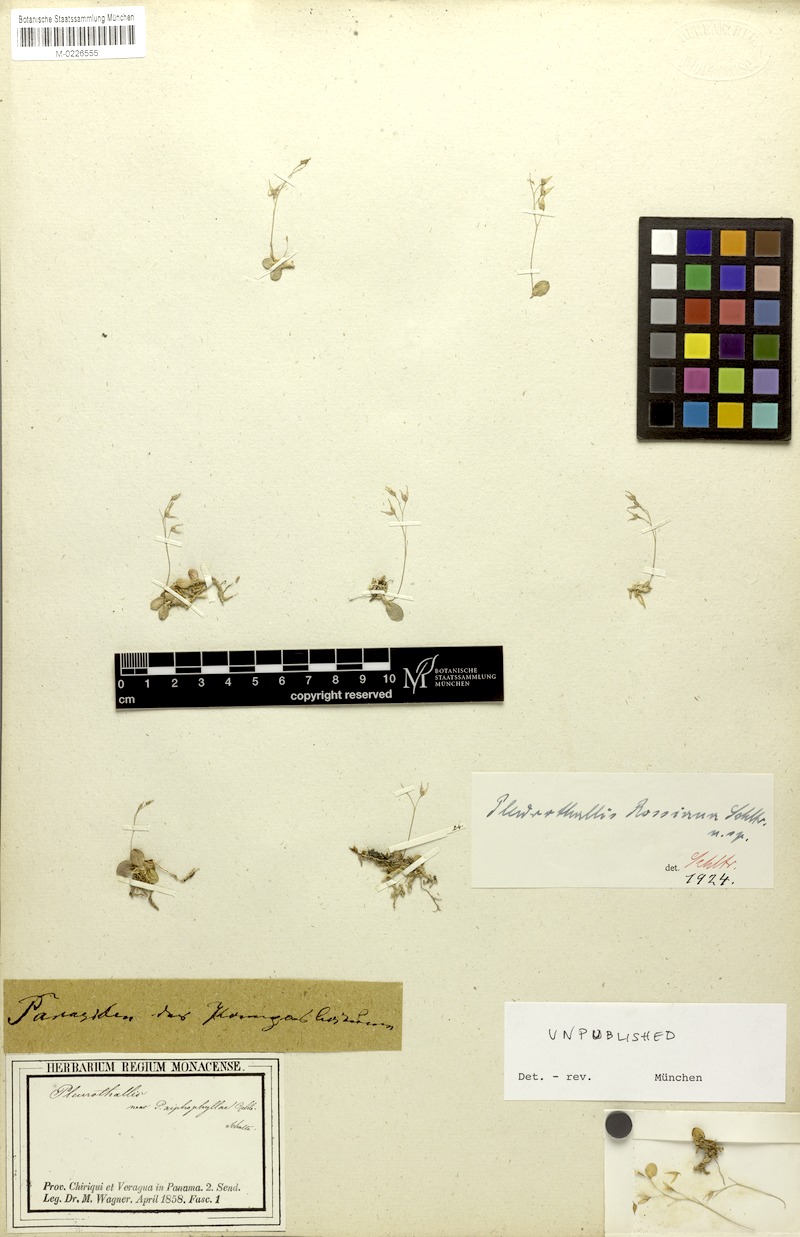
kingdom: Plantae
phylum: Tracheophyta
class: Liliopsida
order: Asparagales
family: Orchidaceae
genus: Pleurothallis
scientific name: Pleurothallis
